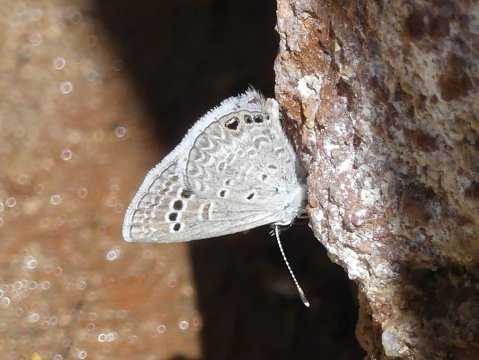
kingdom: Animalia
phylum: Arthropoda
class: Insecta
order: Lepidoptera
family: Lycaenidae
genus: Echinargus
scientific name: Echinargus isola
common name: Reakirt's Blue
